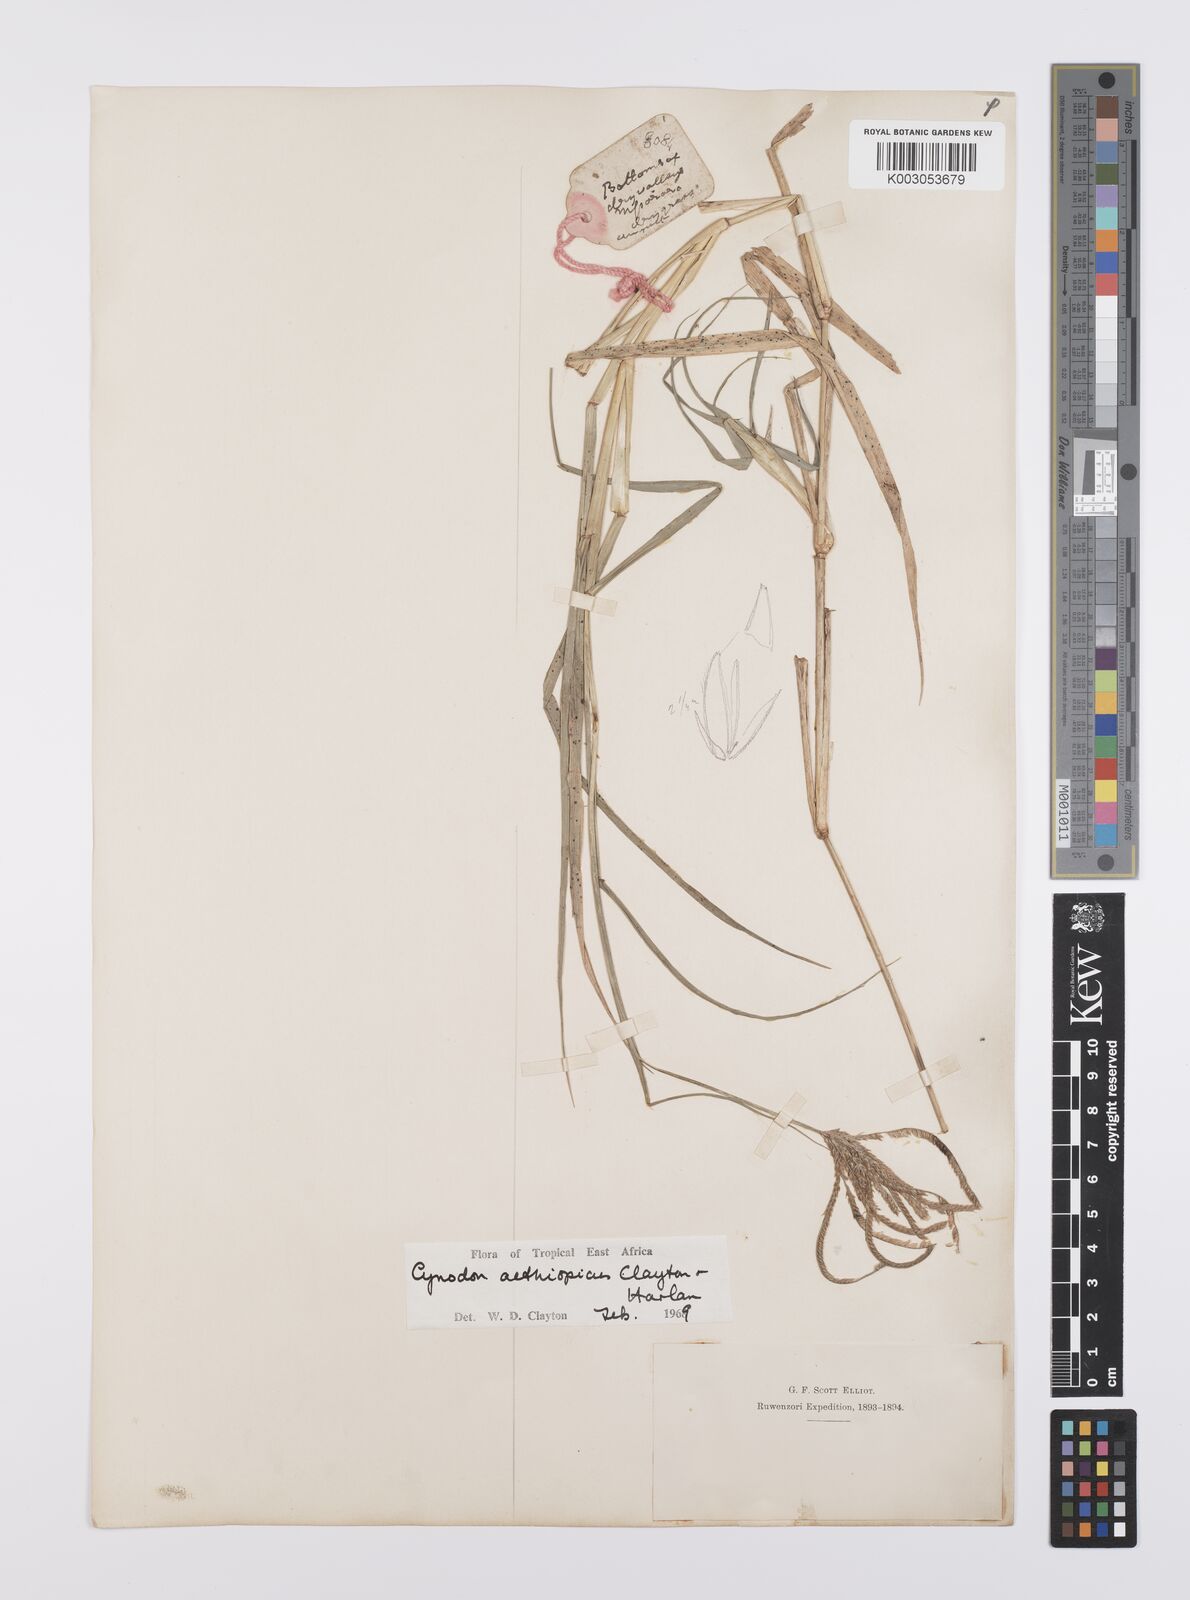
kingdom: Plantae
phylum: Tracheophyta
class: Liliopsida
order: Poales
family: Poaceae
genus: Cynodon
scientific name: Cynodon aethiopicus
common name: Ethiopian dogstooth grass
